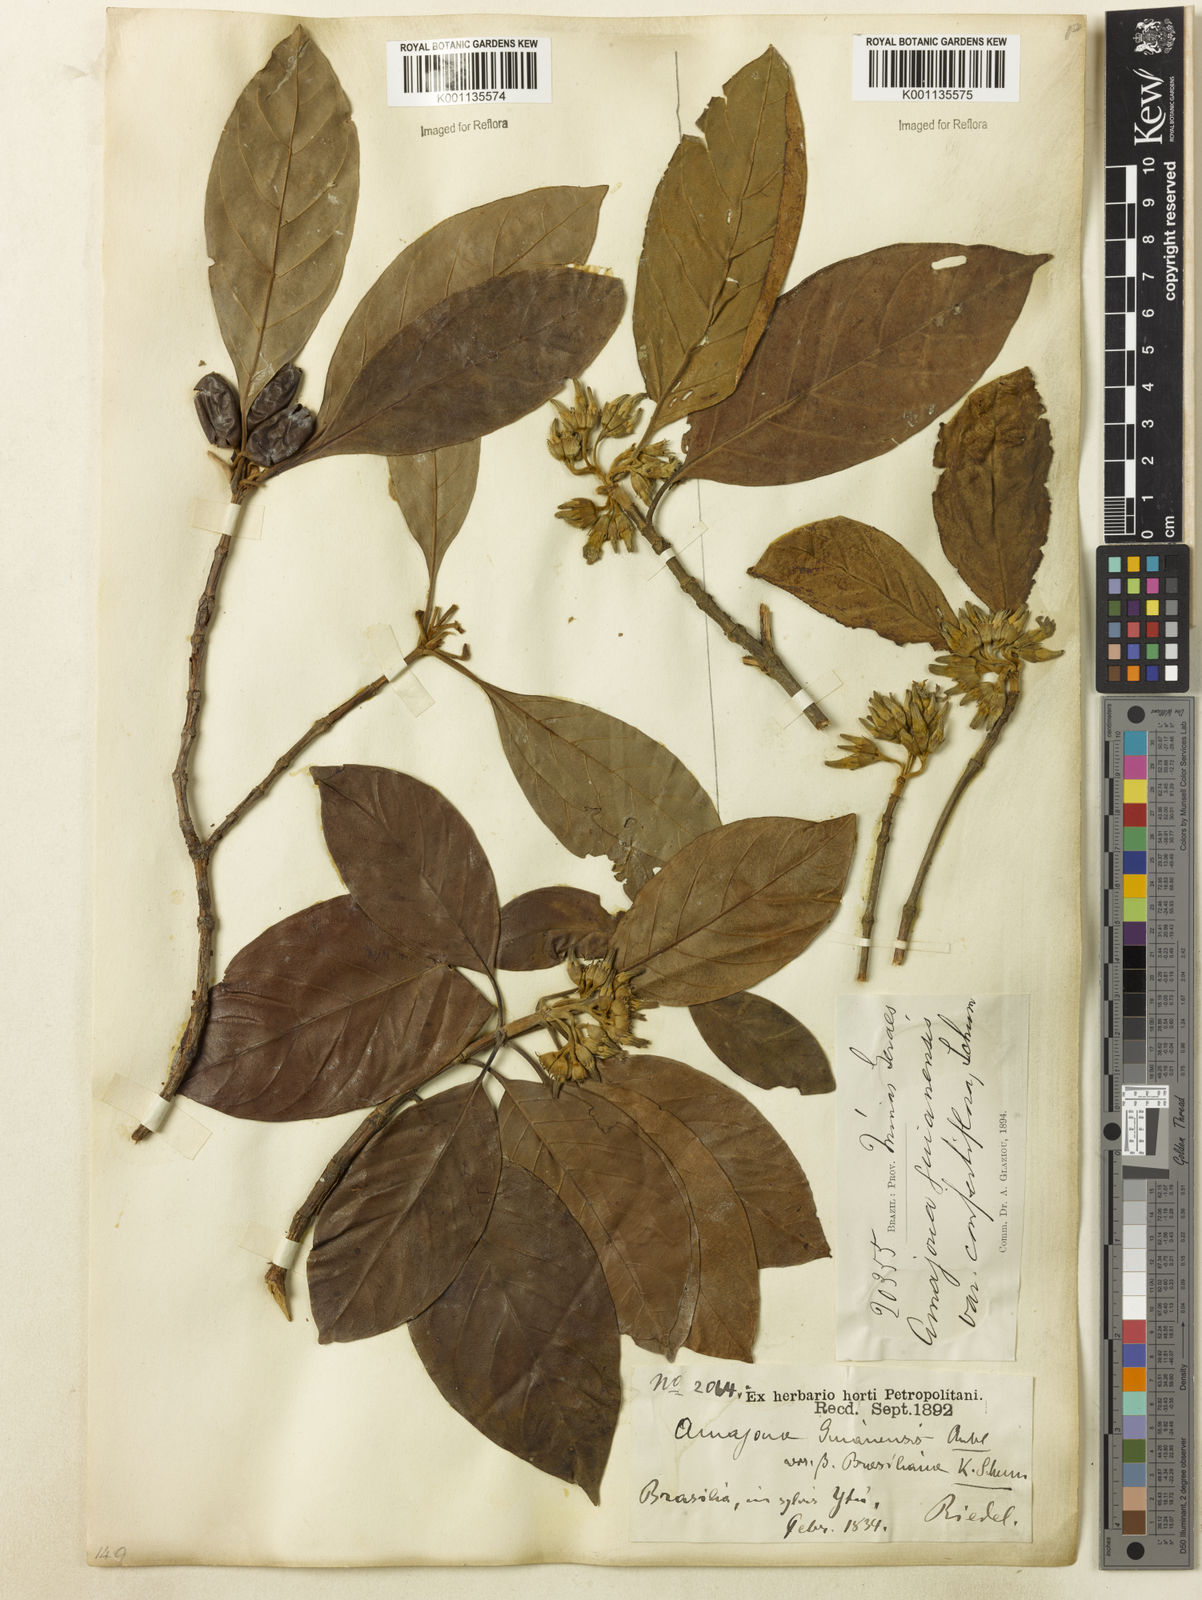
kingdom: Plantae
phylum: Tracheophyta
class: Magnoliopsida
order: Gentianales
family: Rubiaceae
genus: Amaioua
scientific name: Amaioua intermedia
